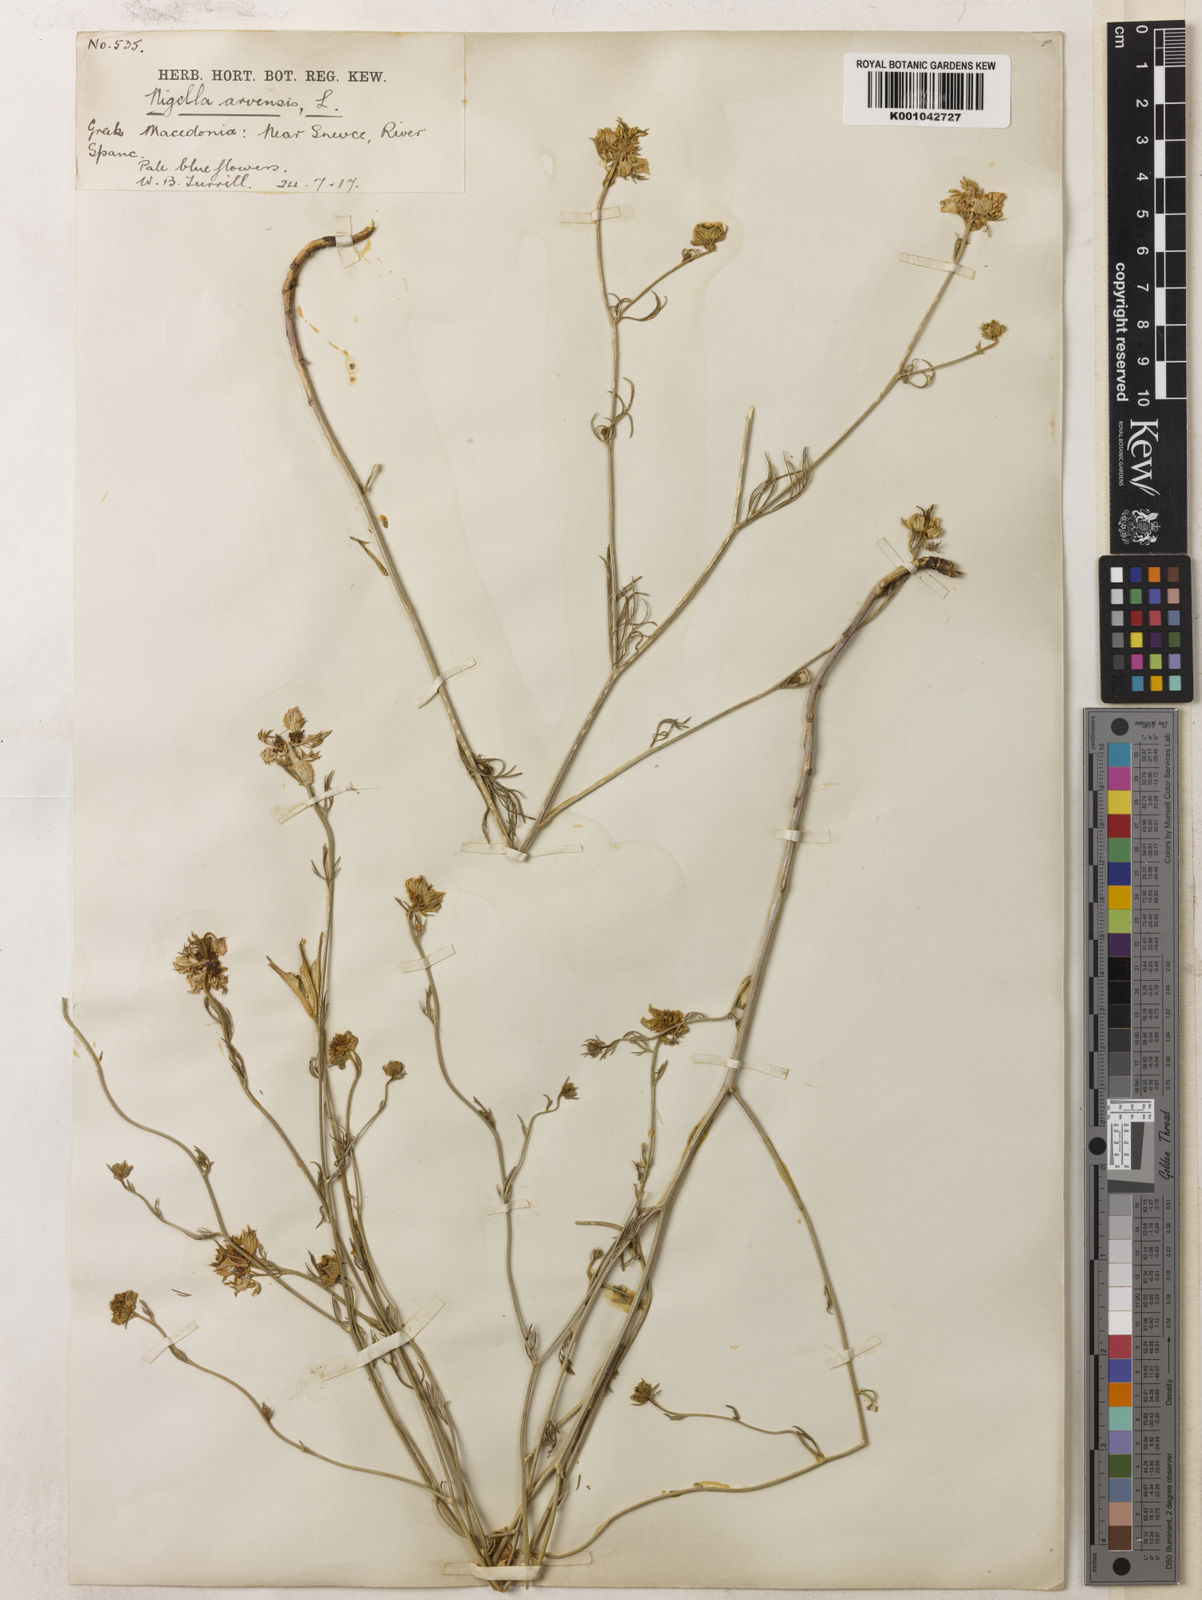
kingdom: Plantae
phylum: Tracheophyta
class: Magnoliopsida
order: Ranunculales
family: Ranunculaceae
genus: Nigella
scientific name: Nigella arvensis
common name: Wild fennel-flower
